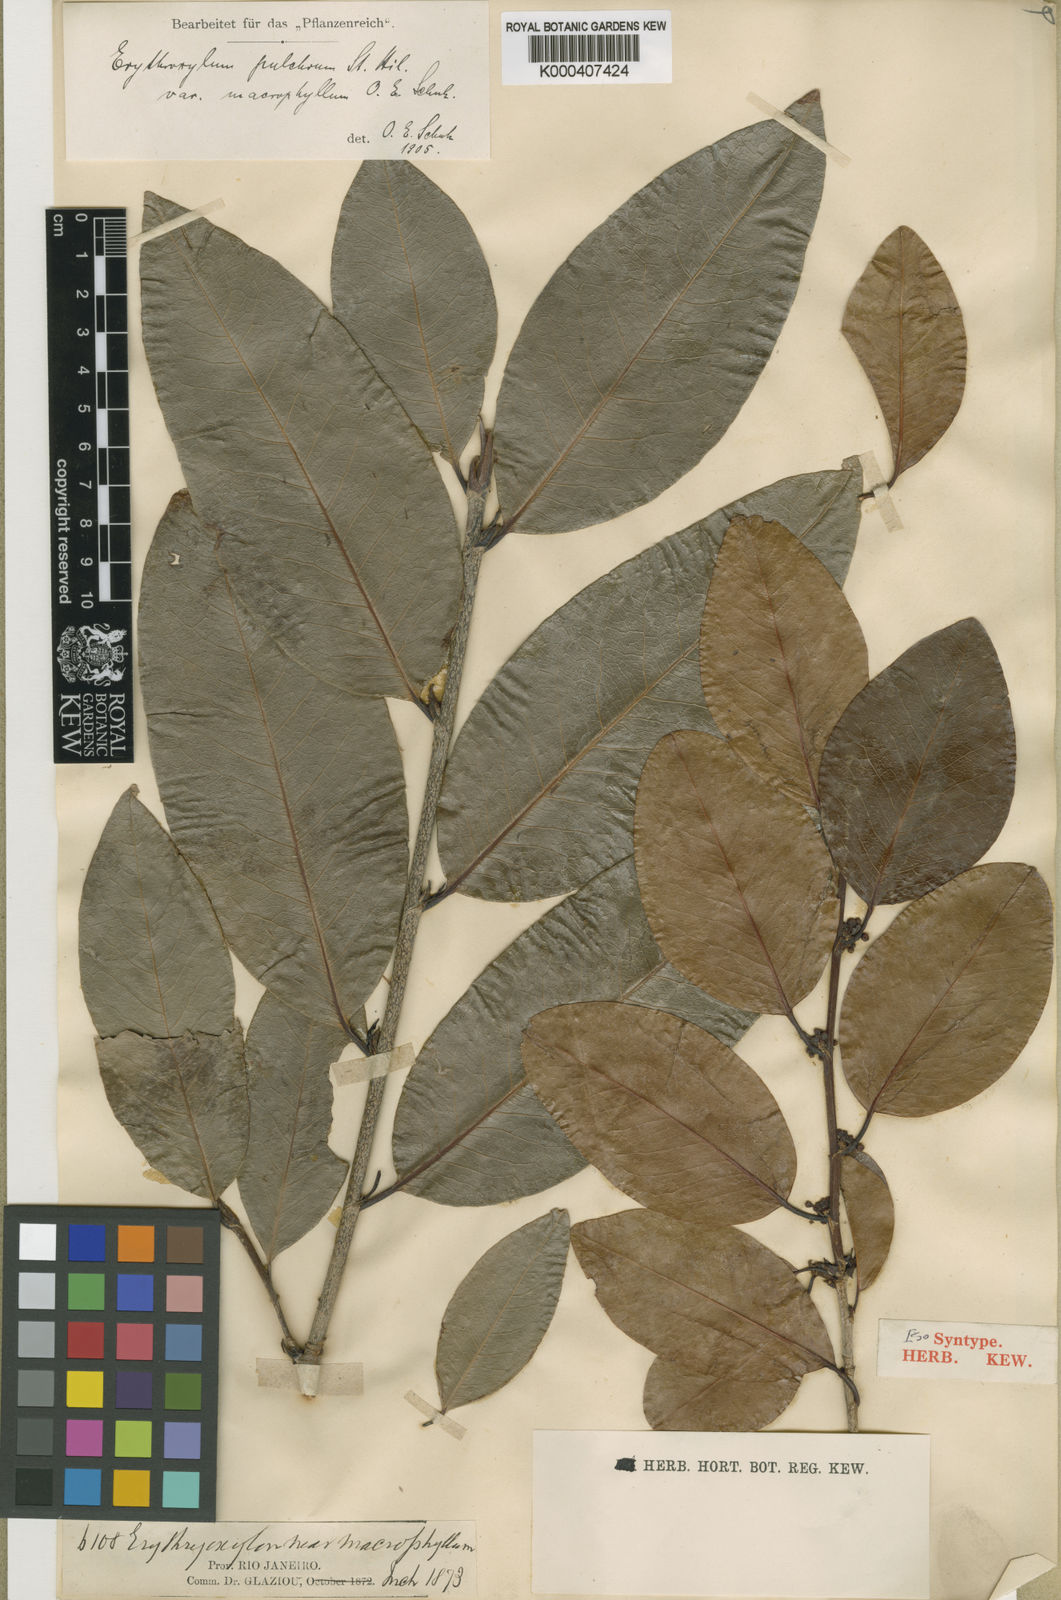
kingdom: Plantae
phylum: Tracheophyta
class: Magnoliopsida
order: Malpighiales
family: Erythroxylaceae
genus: Erythroxylum
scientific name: Erythroxylum pulchrum
